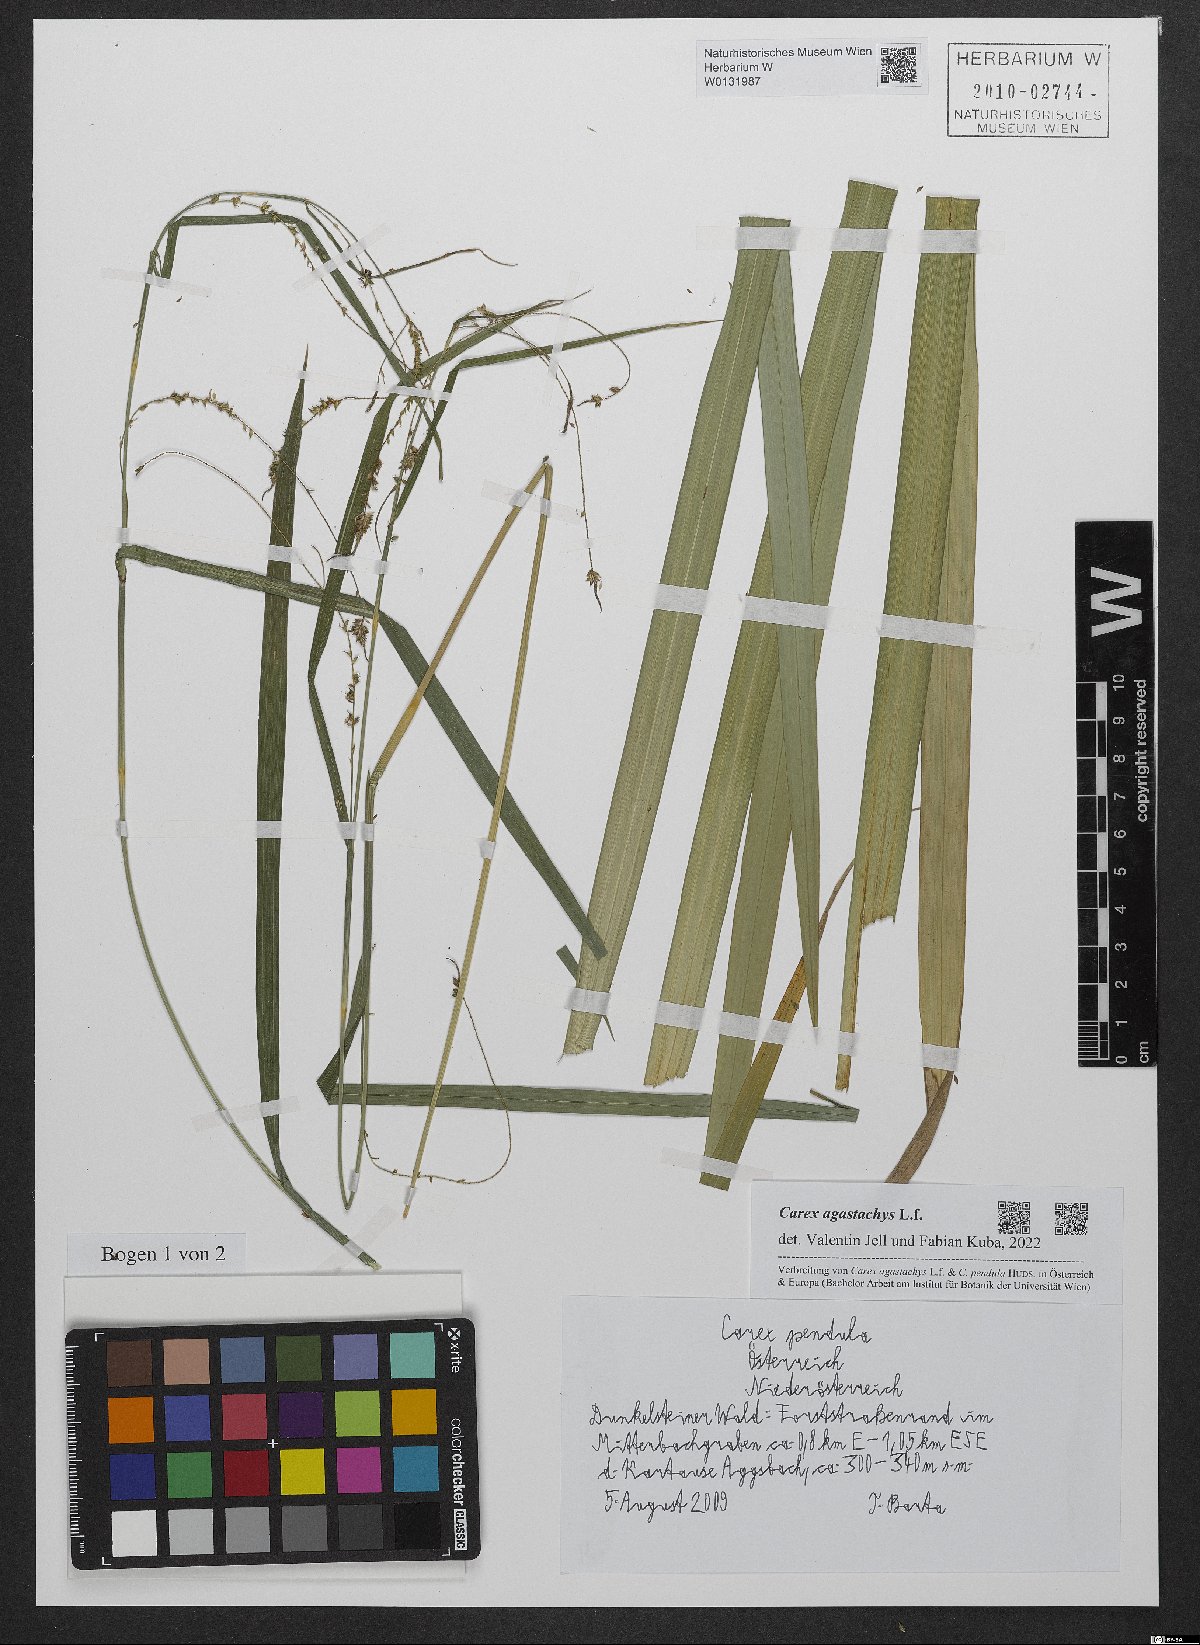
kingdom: Plantae
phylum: Tracheophyta
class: Liliopsida
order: Poales
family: Cyperaceae
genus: Carex
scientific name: Carex agastachys
